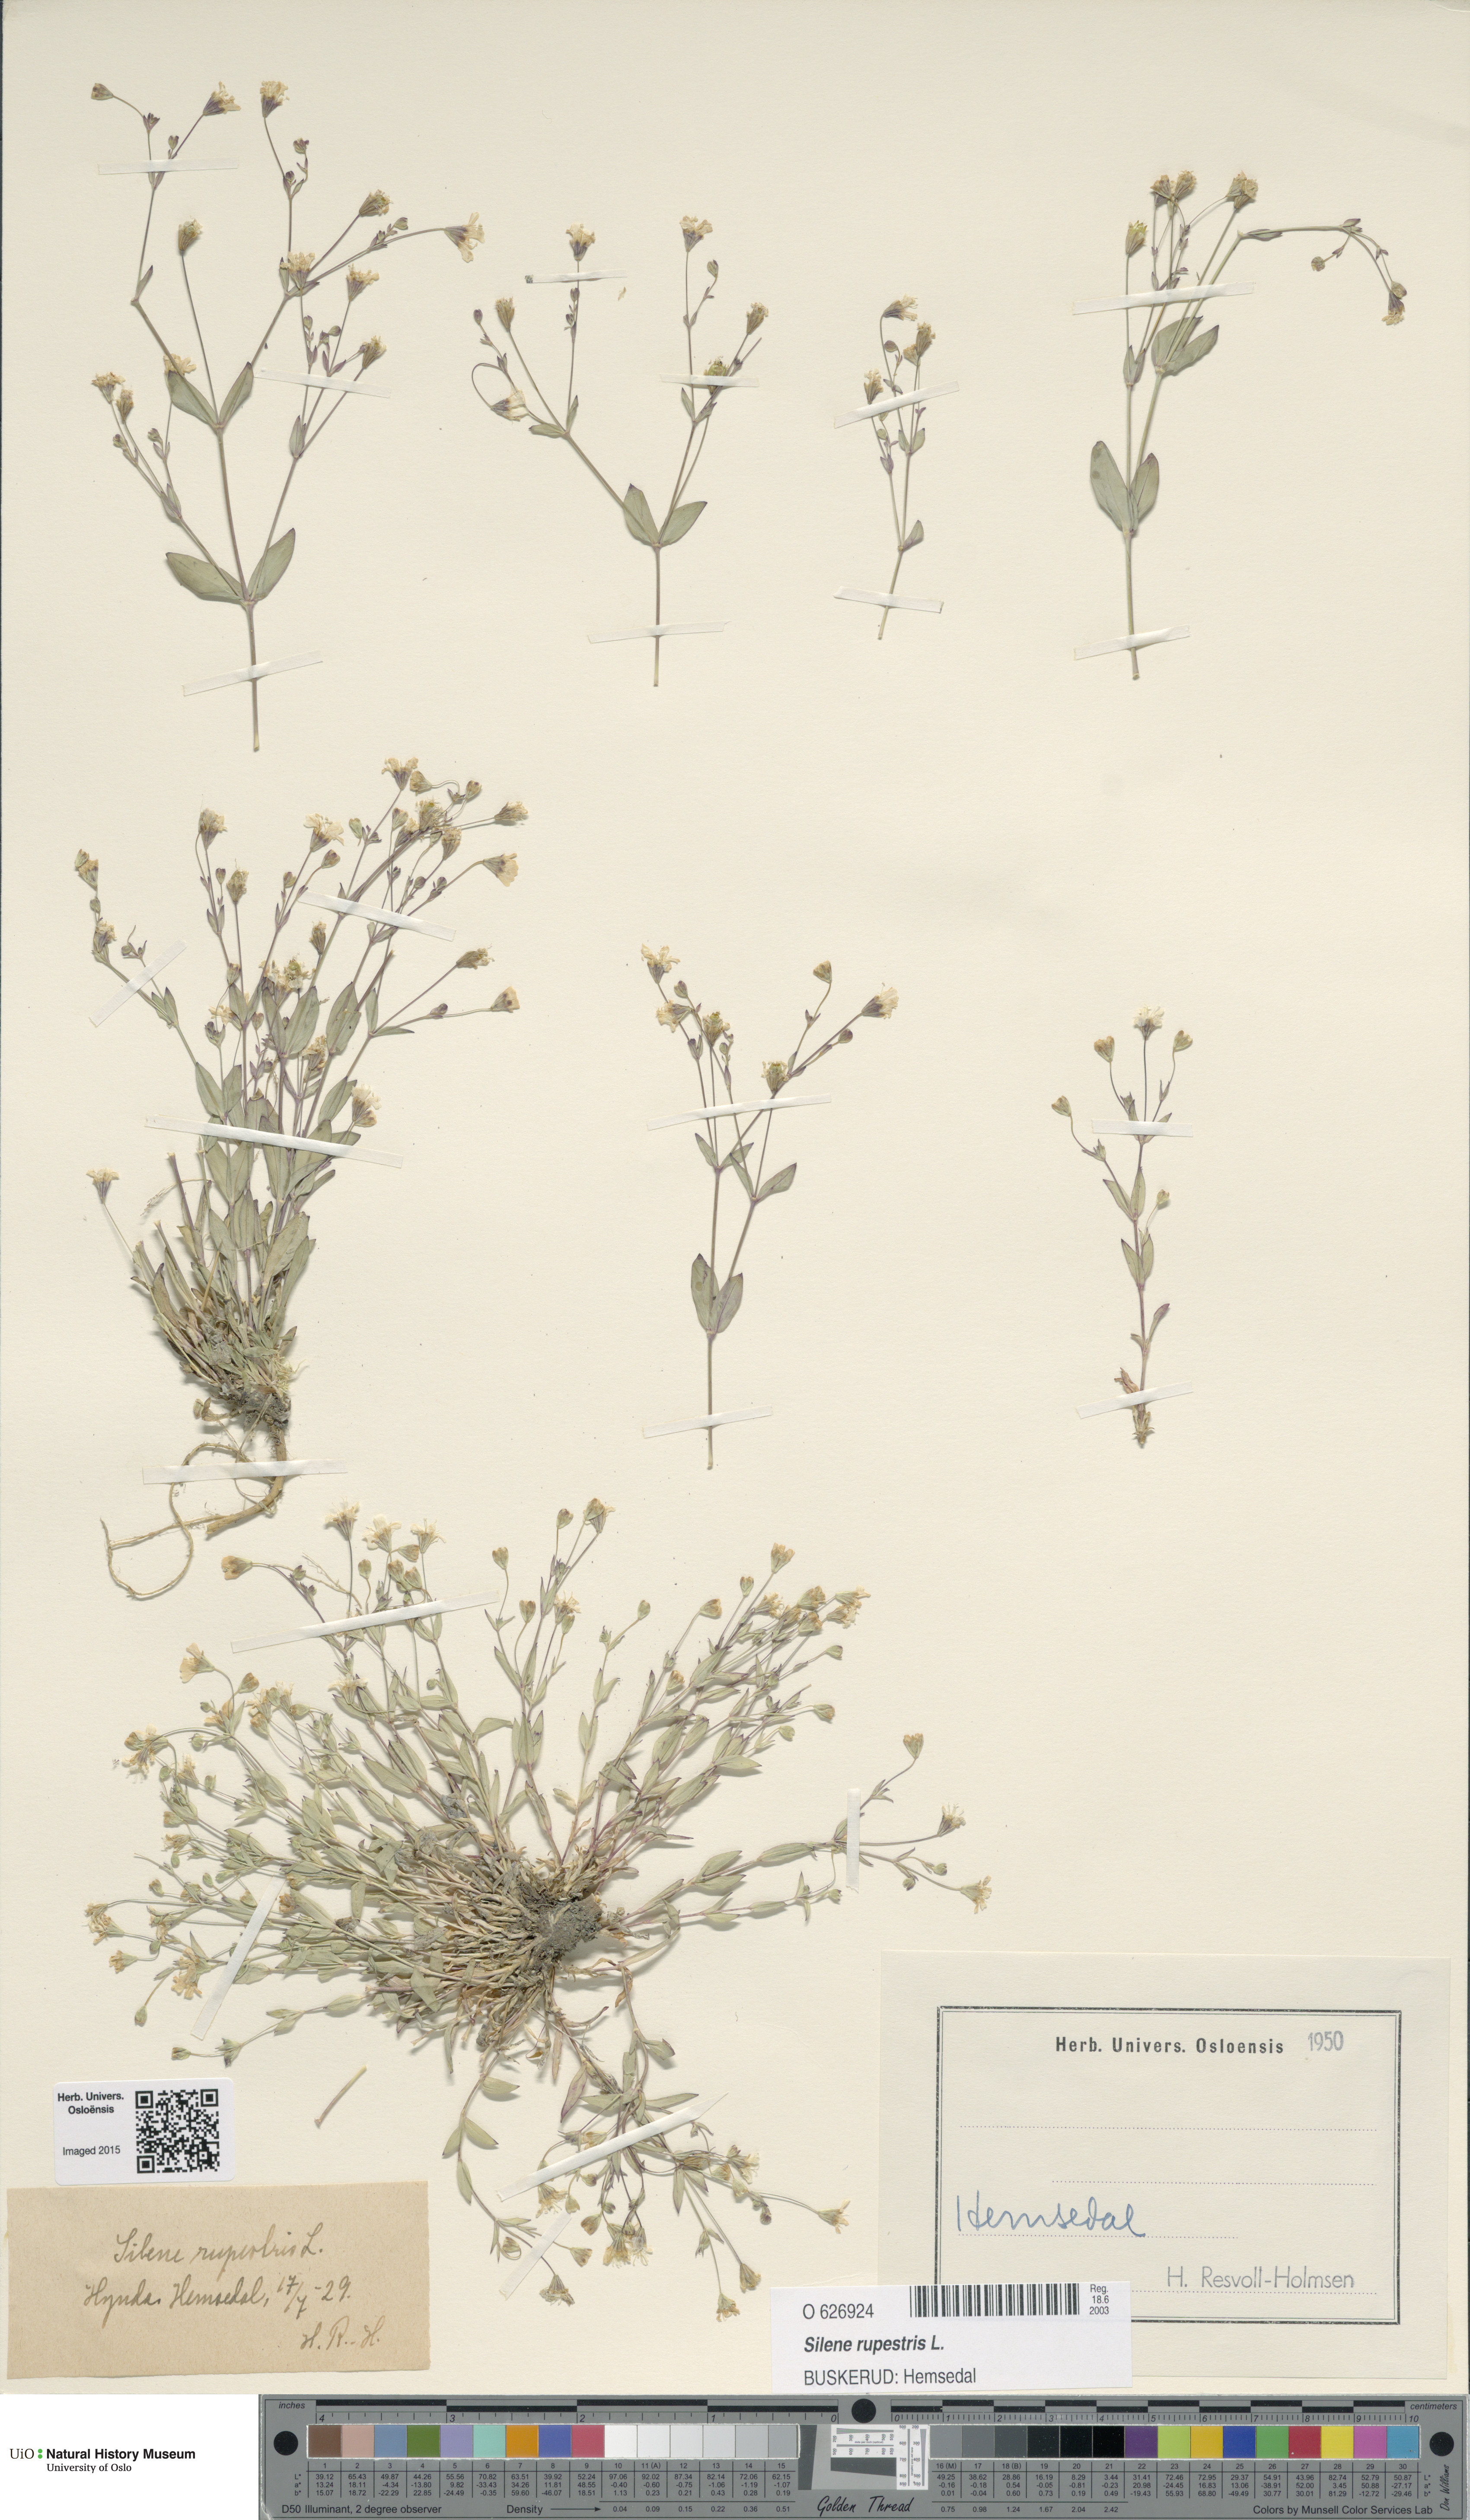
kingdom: Plantae
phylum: Tracheophyta
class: Magnoliopsida
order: Caryophyllales
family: Caryophyllaceae
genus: Atocion
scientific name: Atocion rupestre
